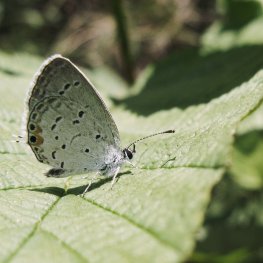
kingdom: Animalia
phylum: Arthropoda
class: Insecta
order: Lepidoptera
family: Lycaenidae
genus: Elkalyce
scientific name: Elkalyce comyntas
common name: Eastern Tailed-Blue
